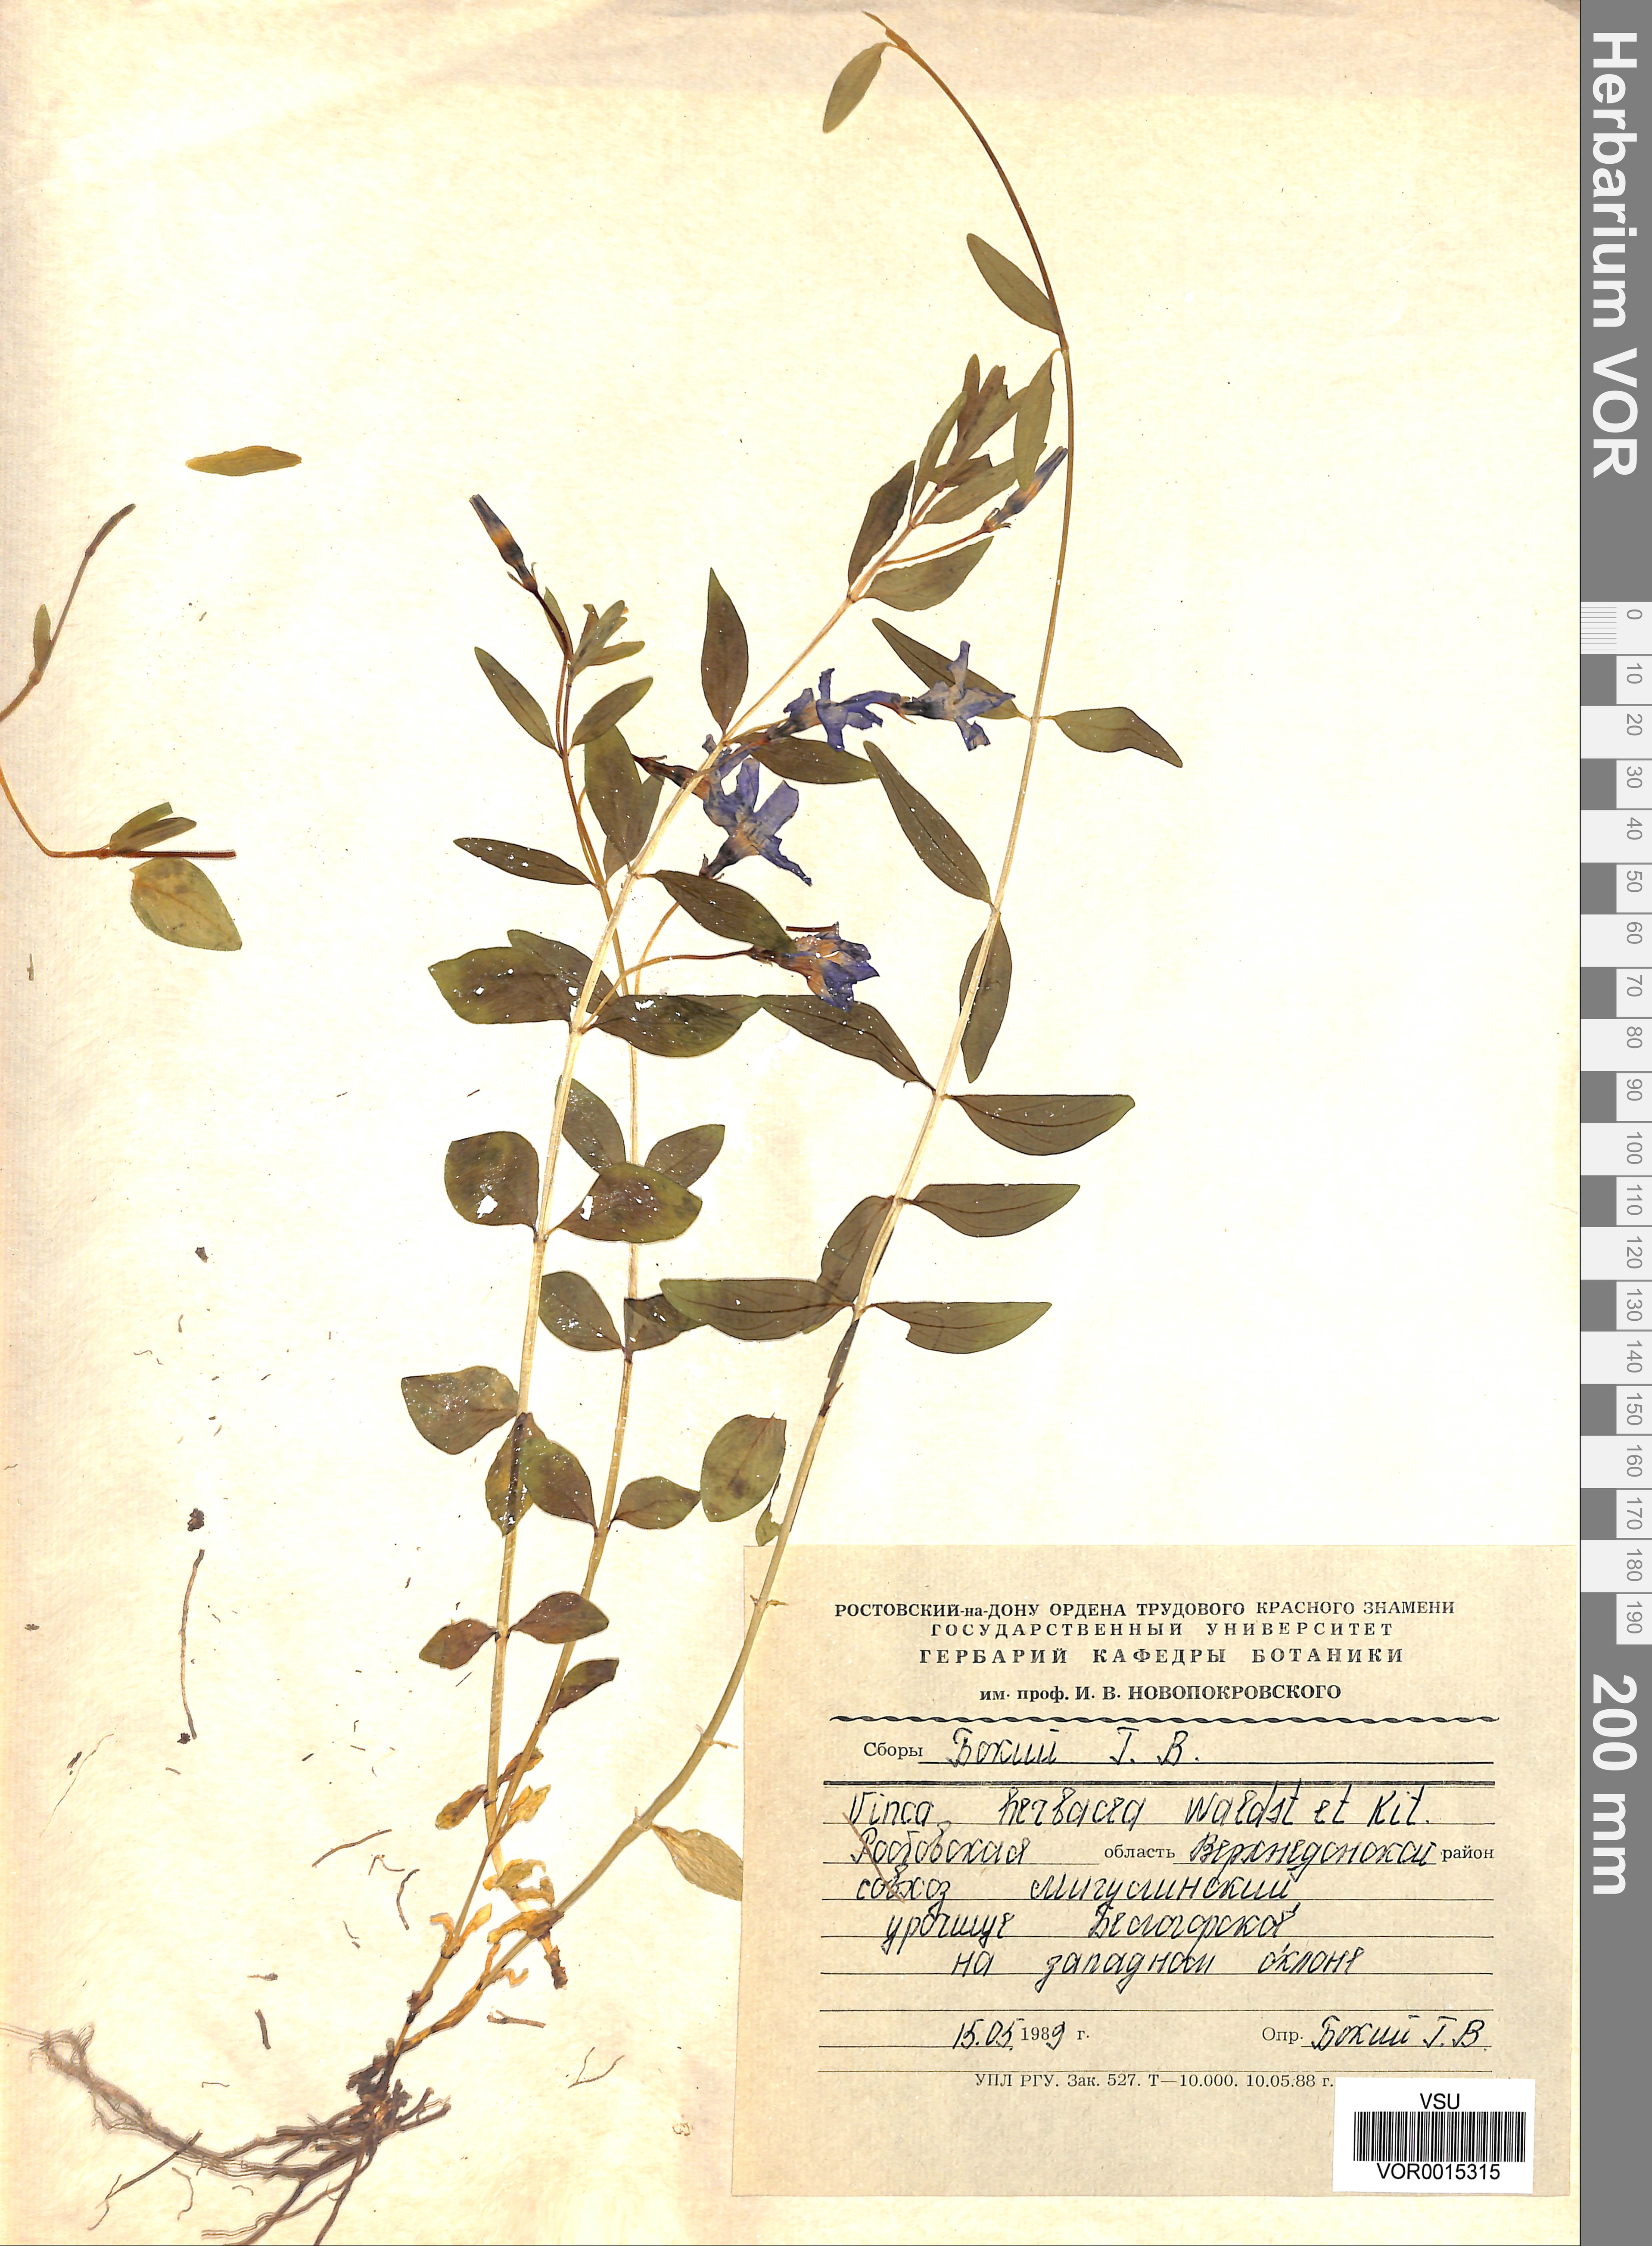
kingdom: Plantae
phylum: Tracheophyta
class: Magnoliopsida
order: Gentianales
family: Apocynaceae
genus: Vinca
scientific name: Vinca herbacea
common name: Herbaceous periwinkle
